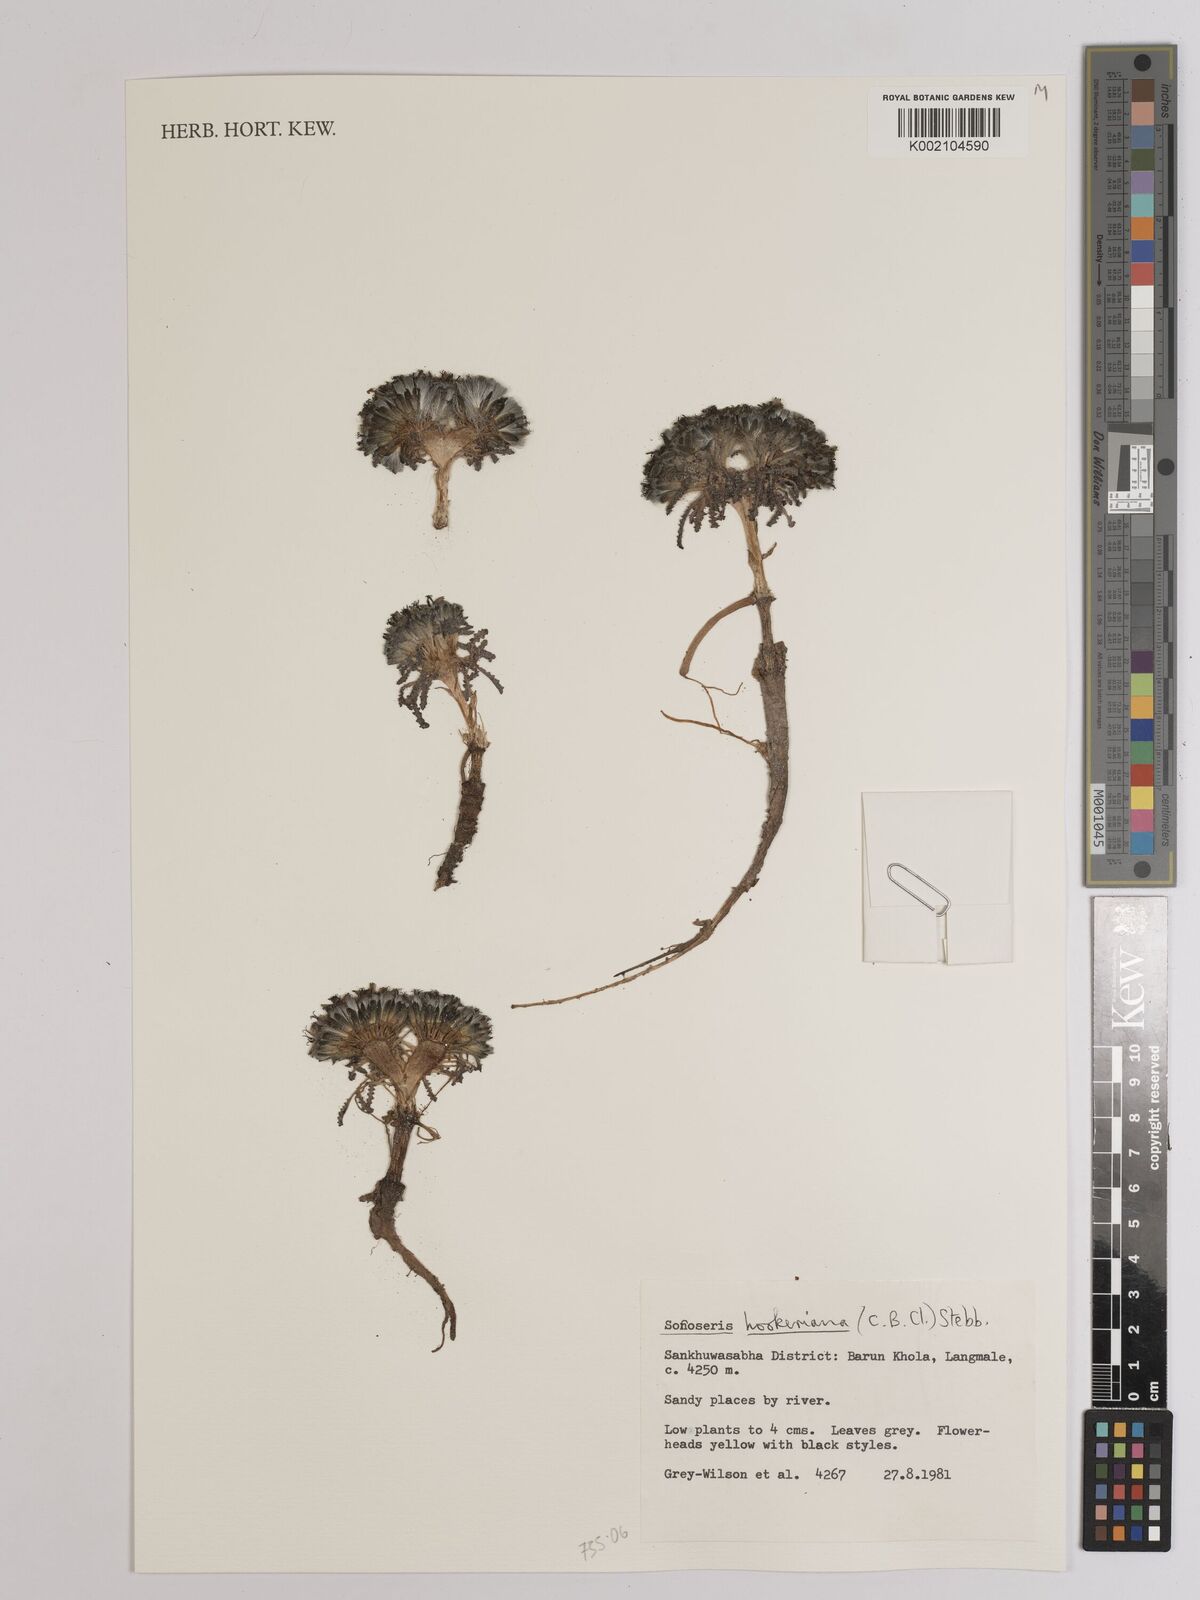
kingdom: Plantae
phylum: Tracheophyta
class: Magnoliopsida
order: Asterales
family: Asteraceae
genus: Soroseris
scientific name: Soroseris hookeriana
